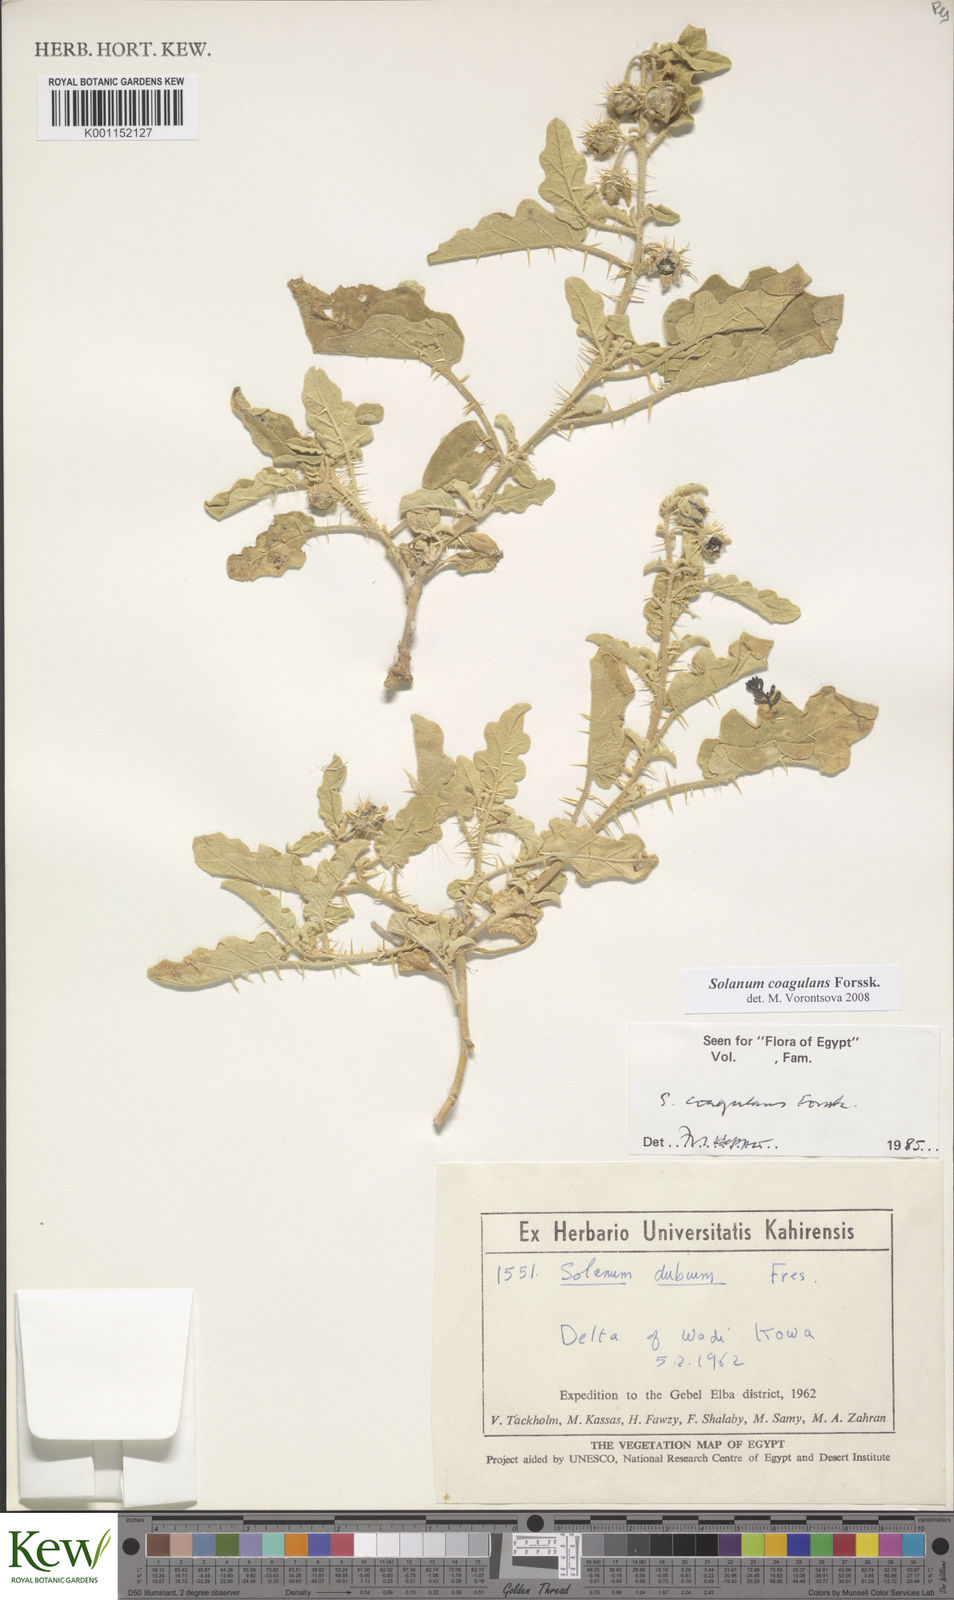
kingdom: Plantae
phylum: Tracheophyta
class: Magnoliopsida
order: Solanales
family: Solanaceae
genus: Solanum
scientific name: Solanum coagulans
